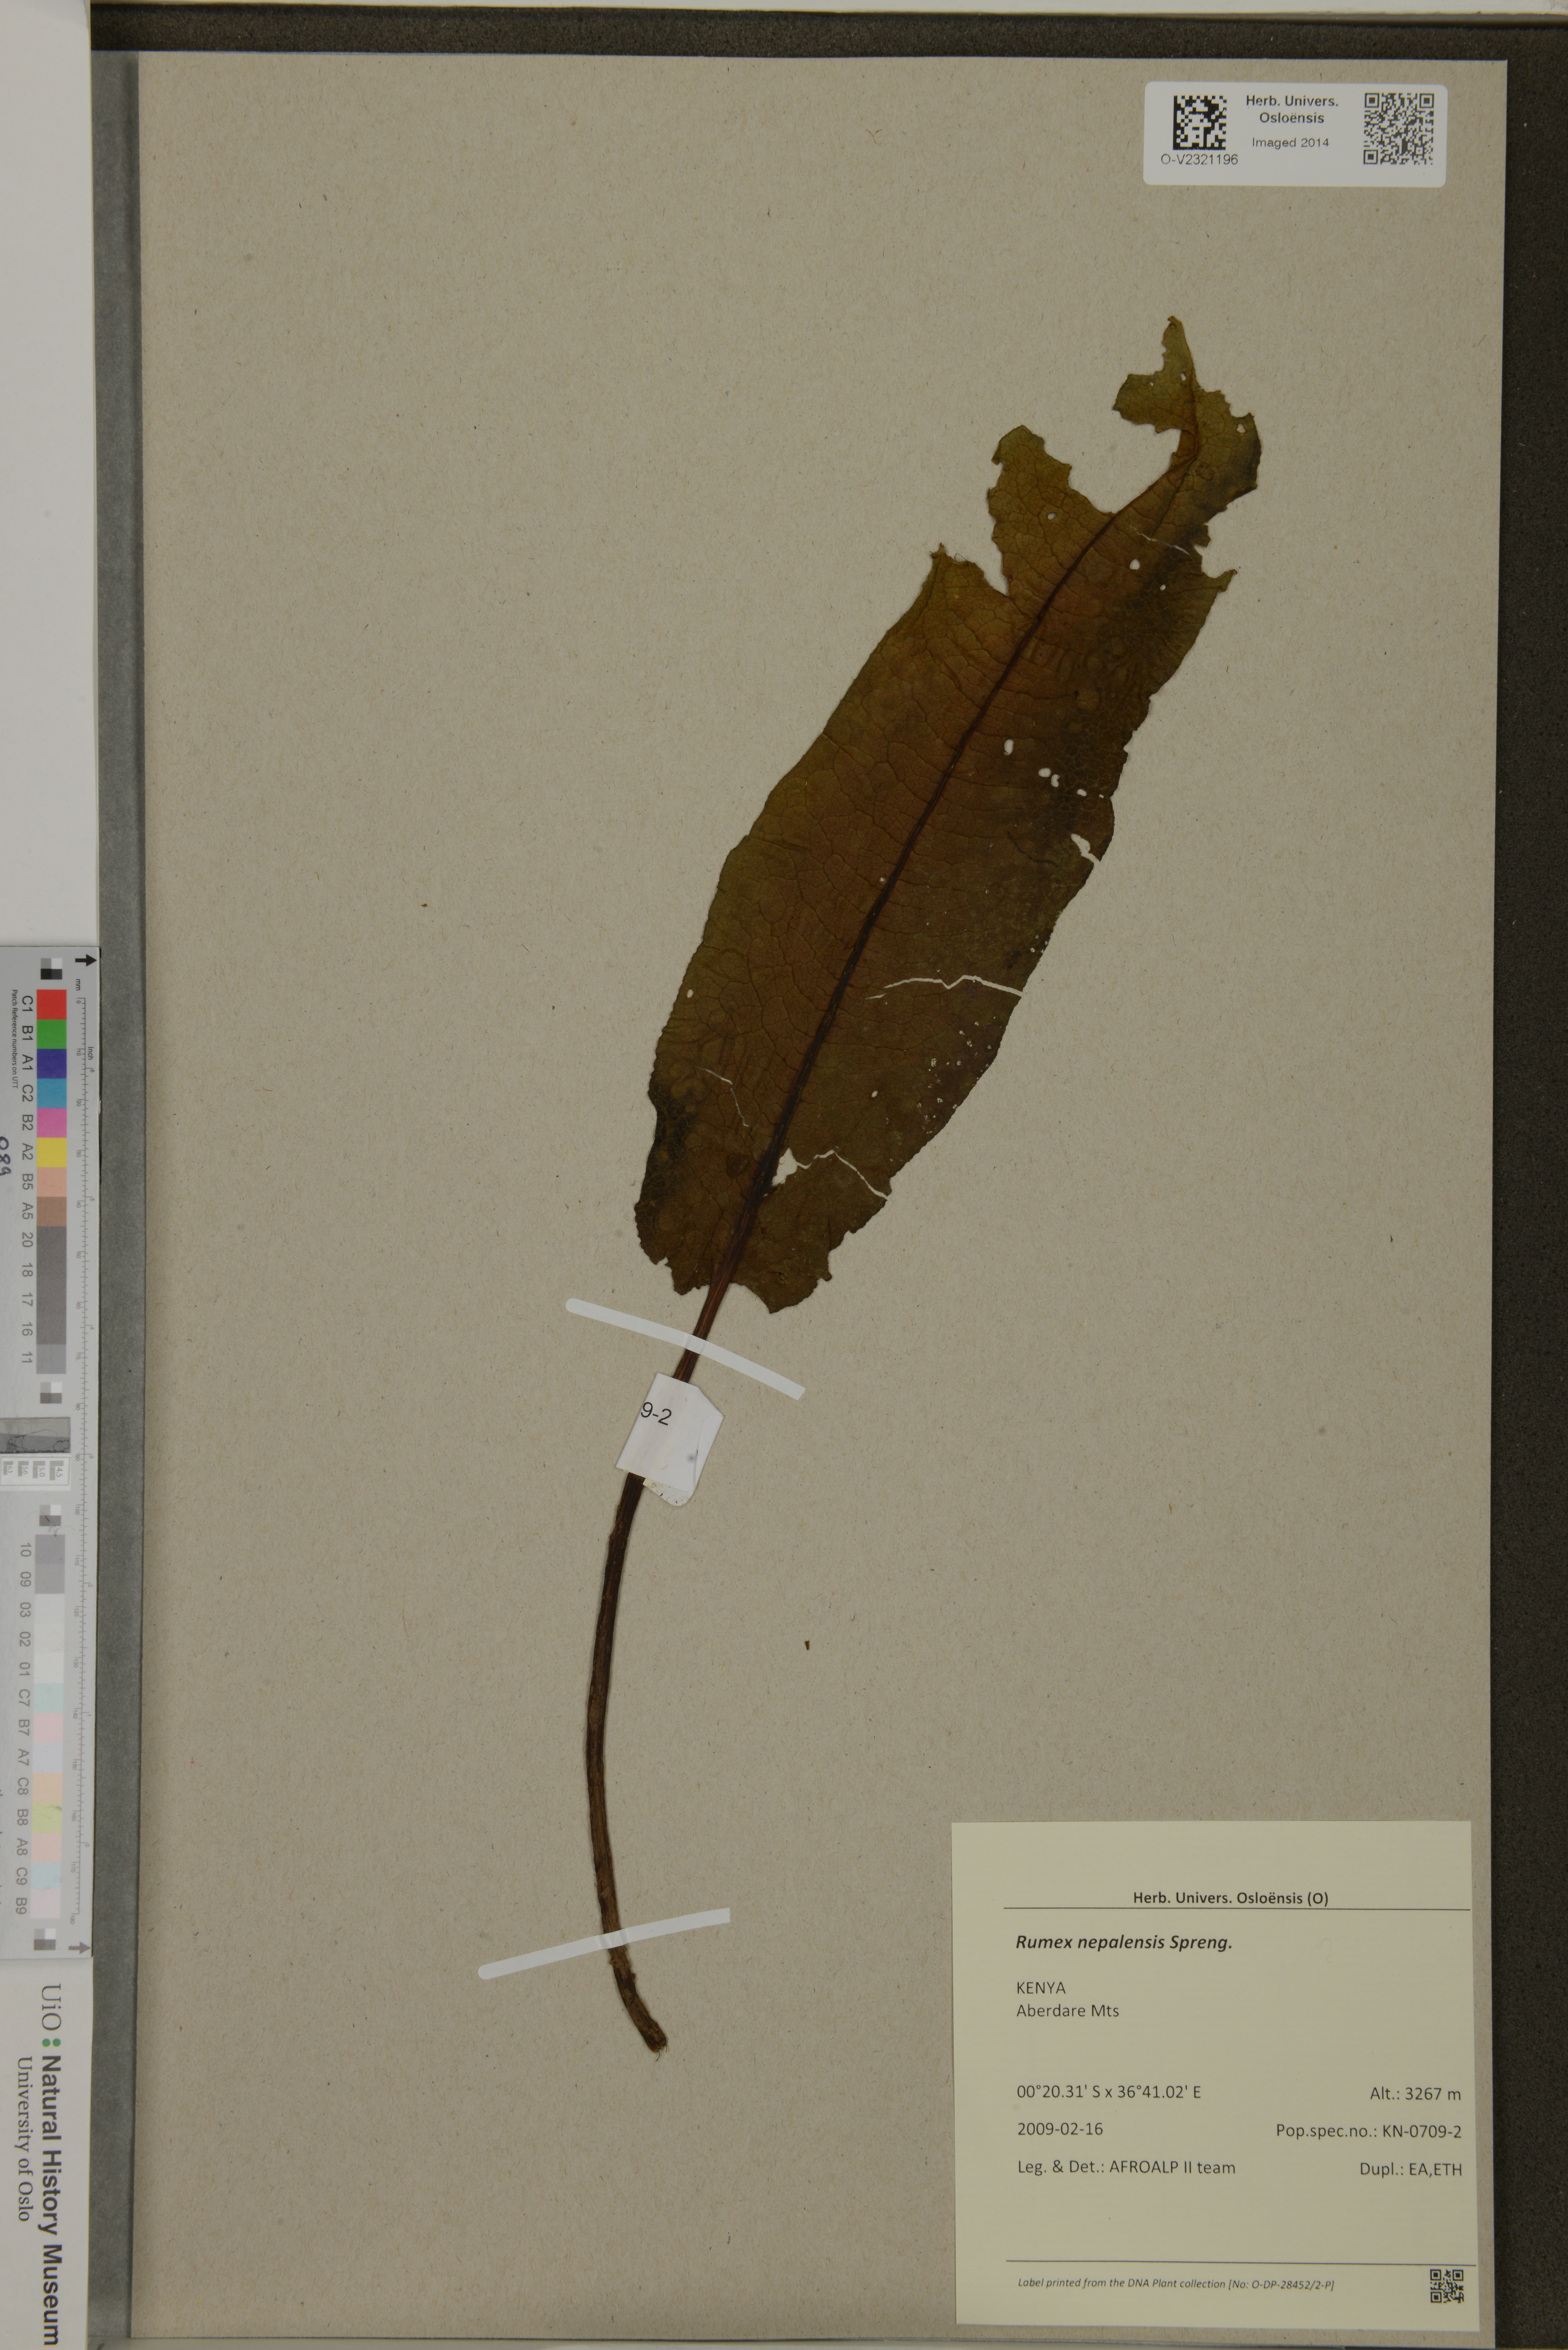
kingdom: Plantae
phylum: Tracheophyta
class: Magnoliopsida
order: Caryophyllales
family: Polygonaceae
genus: Rumex
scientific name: Rumex nepalensis
